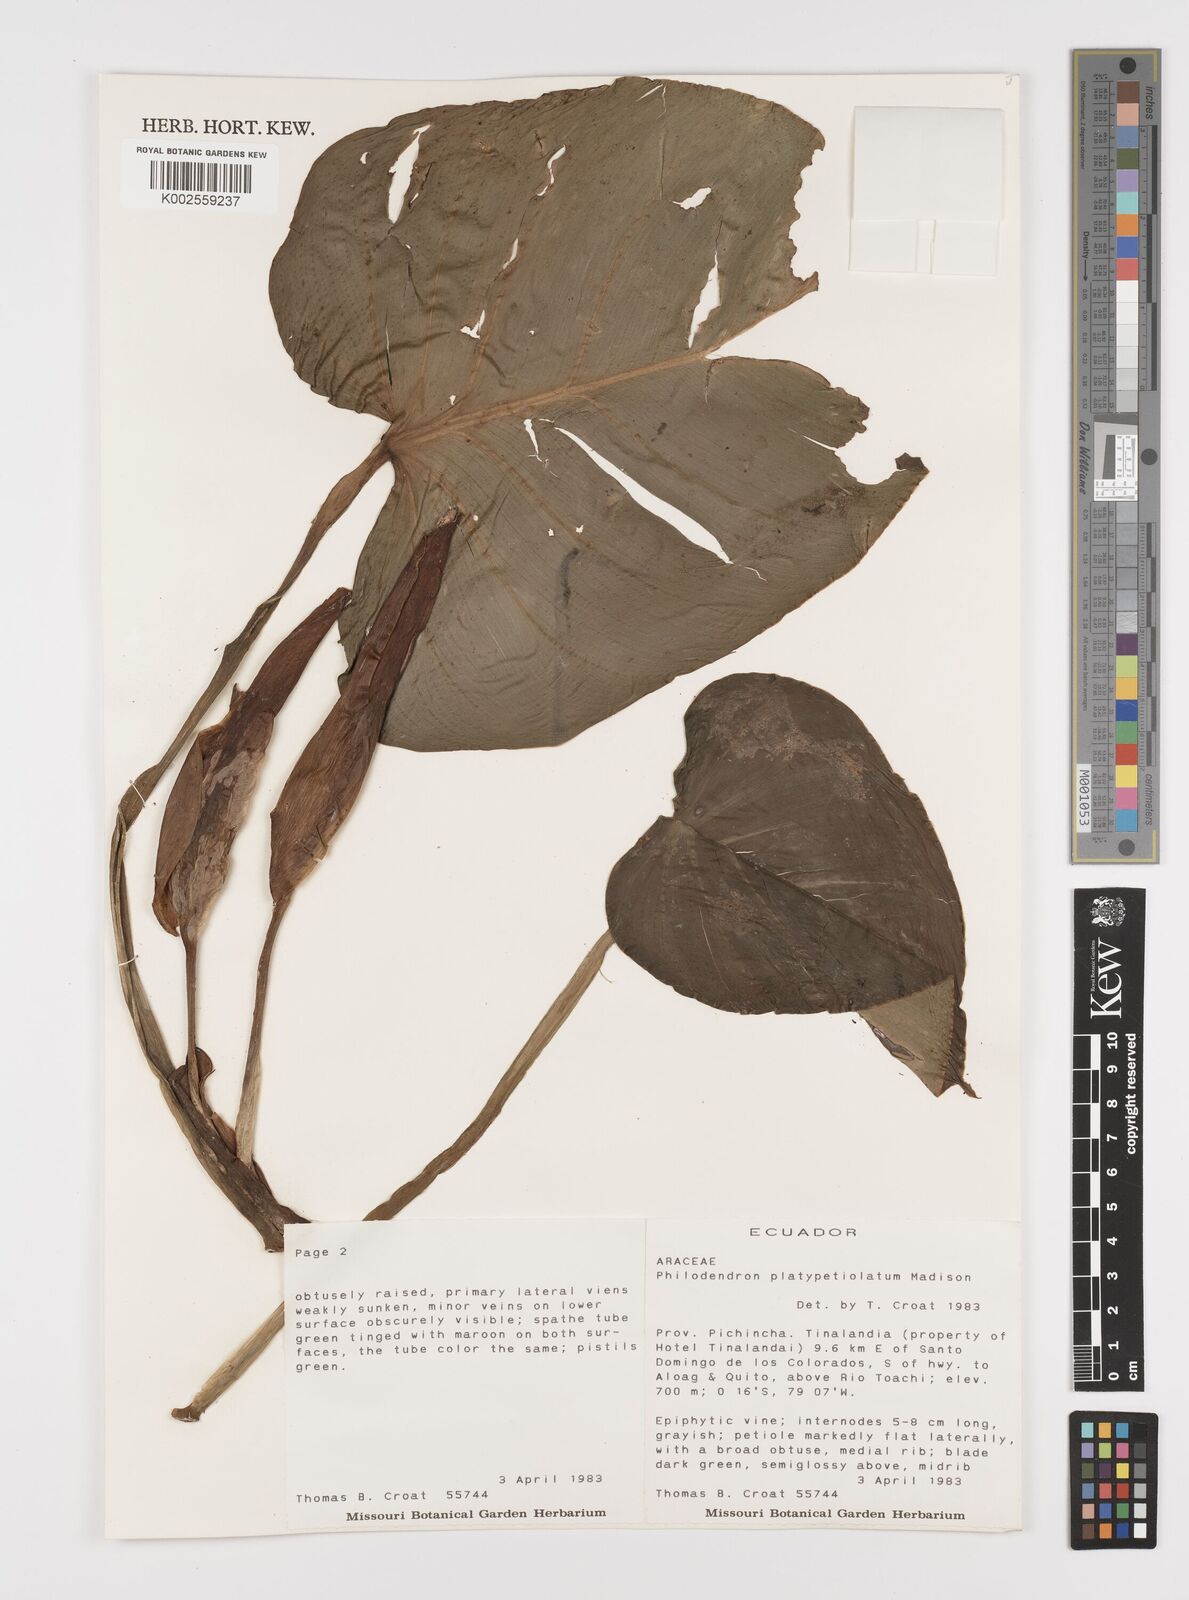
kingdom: Plantae
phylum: Tracheophyta
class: Liliopsida
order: Alismatales
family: Araceae
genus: Philodendron
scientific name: Philodendron platypetiolatum
